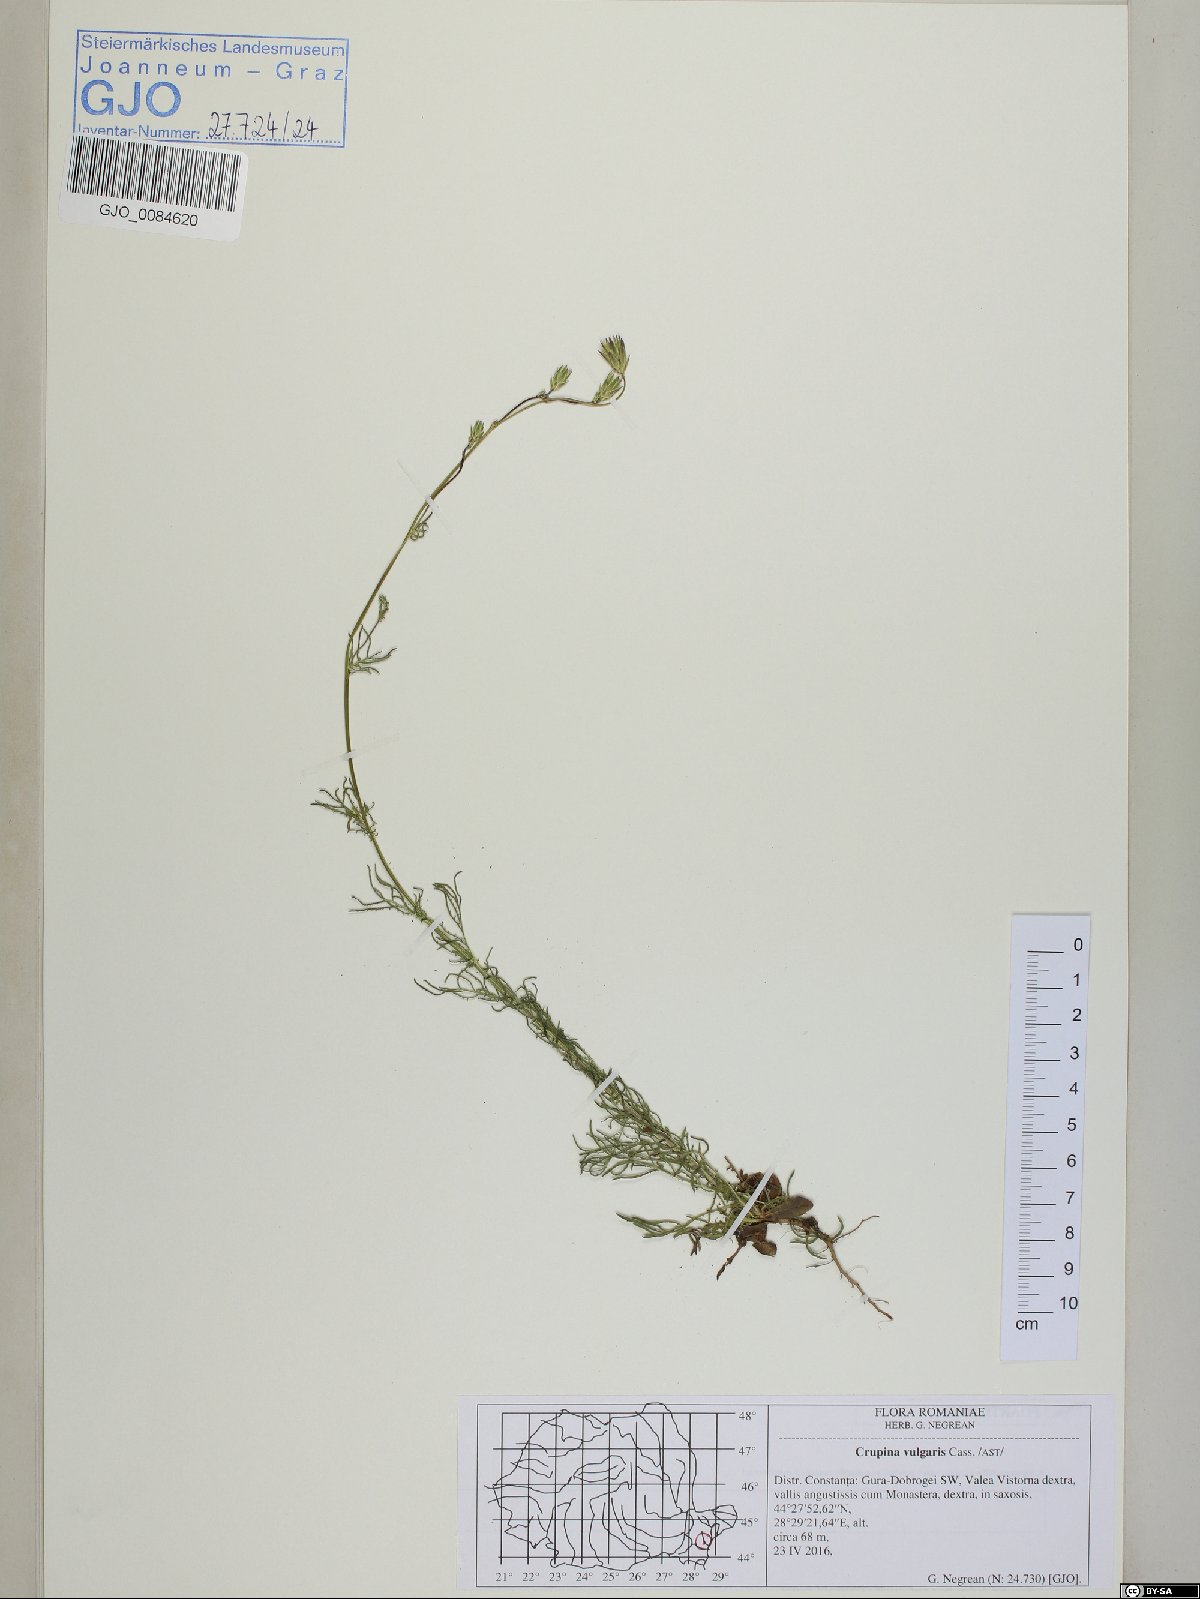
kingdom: Plantae
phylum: Tracheophyta
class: Magnoliopsida
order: Asterales
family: Asteraceae
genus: Crupina
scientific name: Crupina vulgaris
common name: Common crupina
